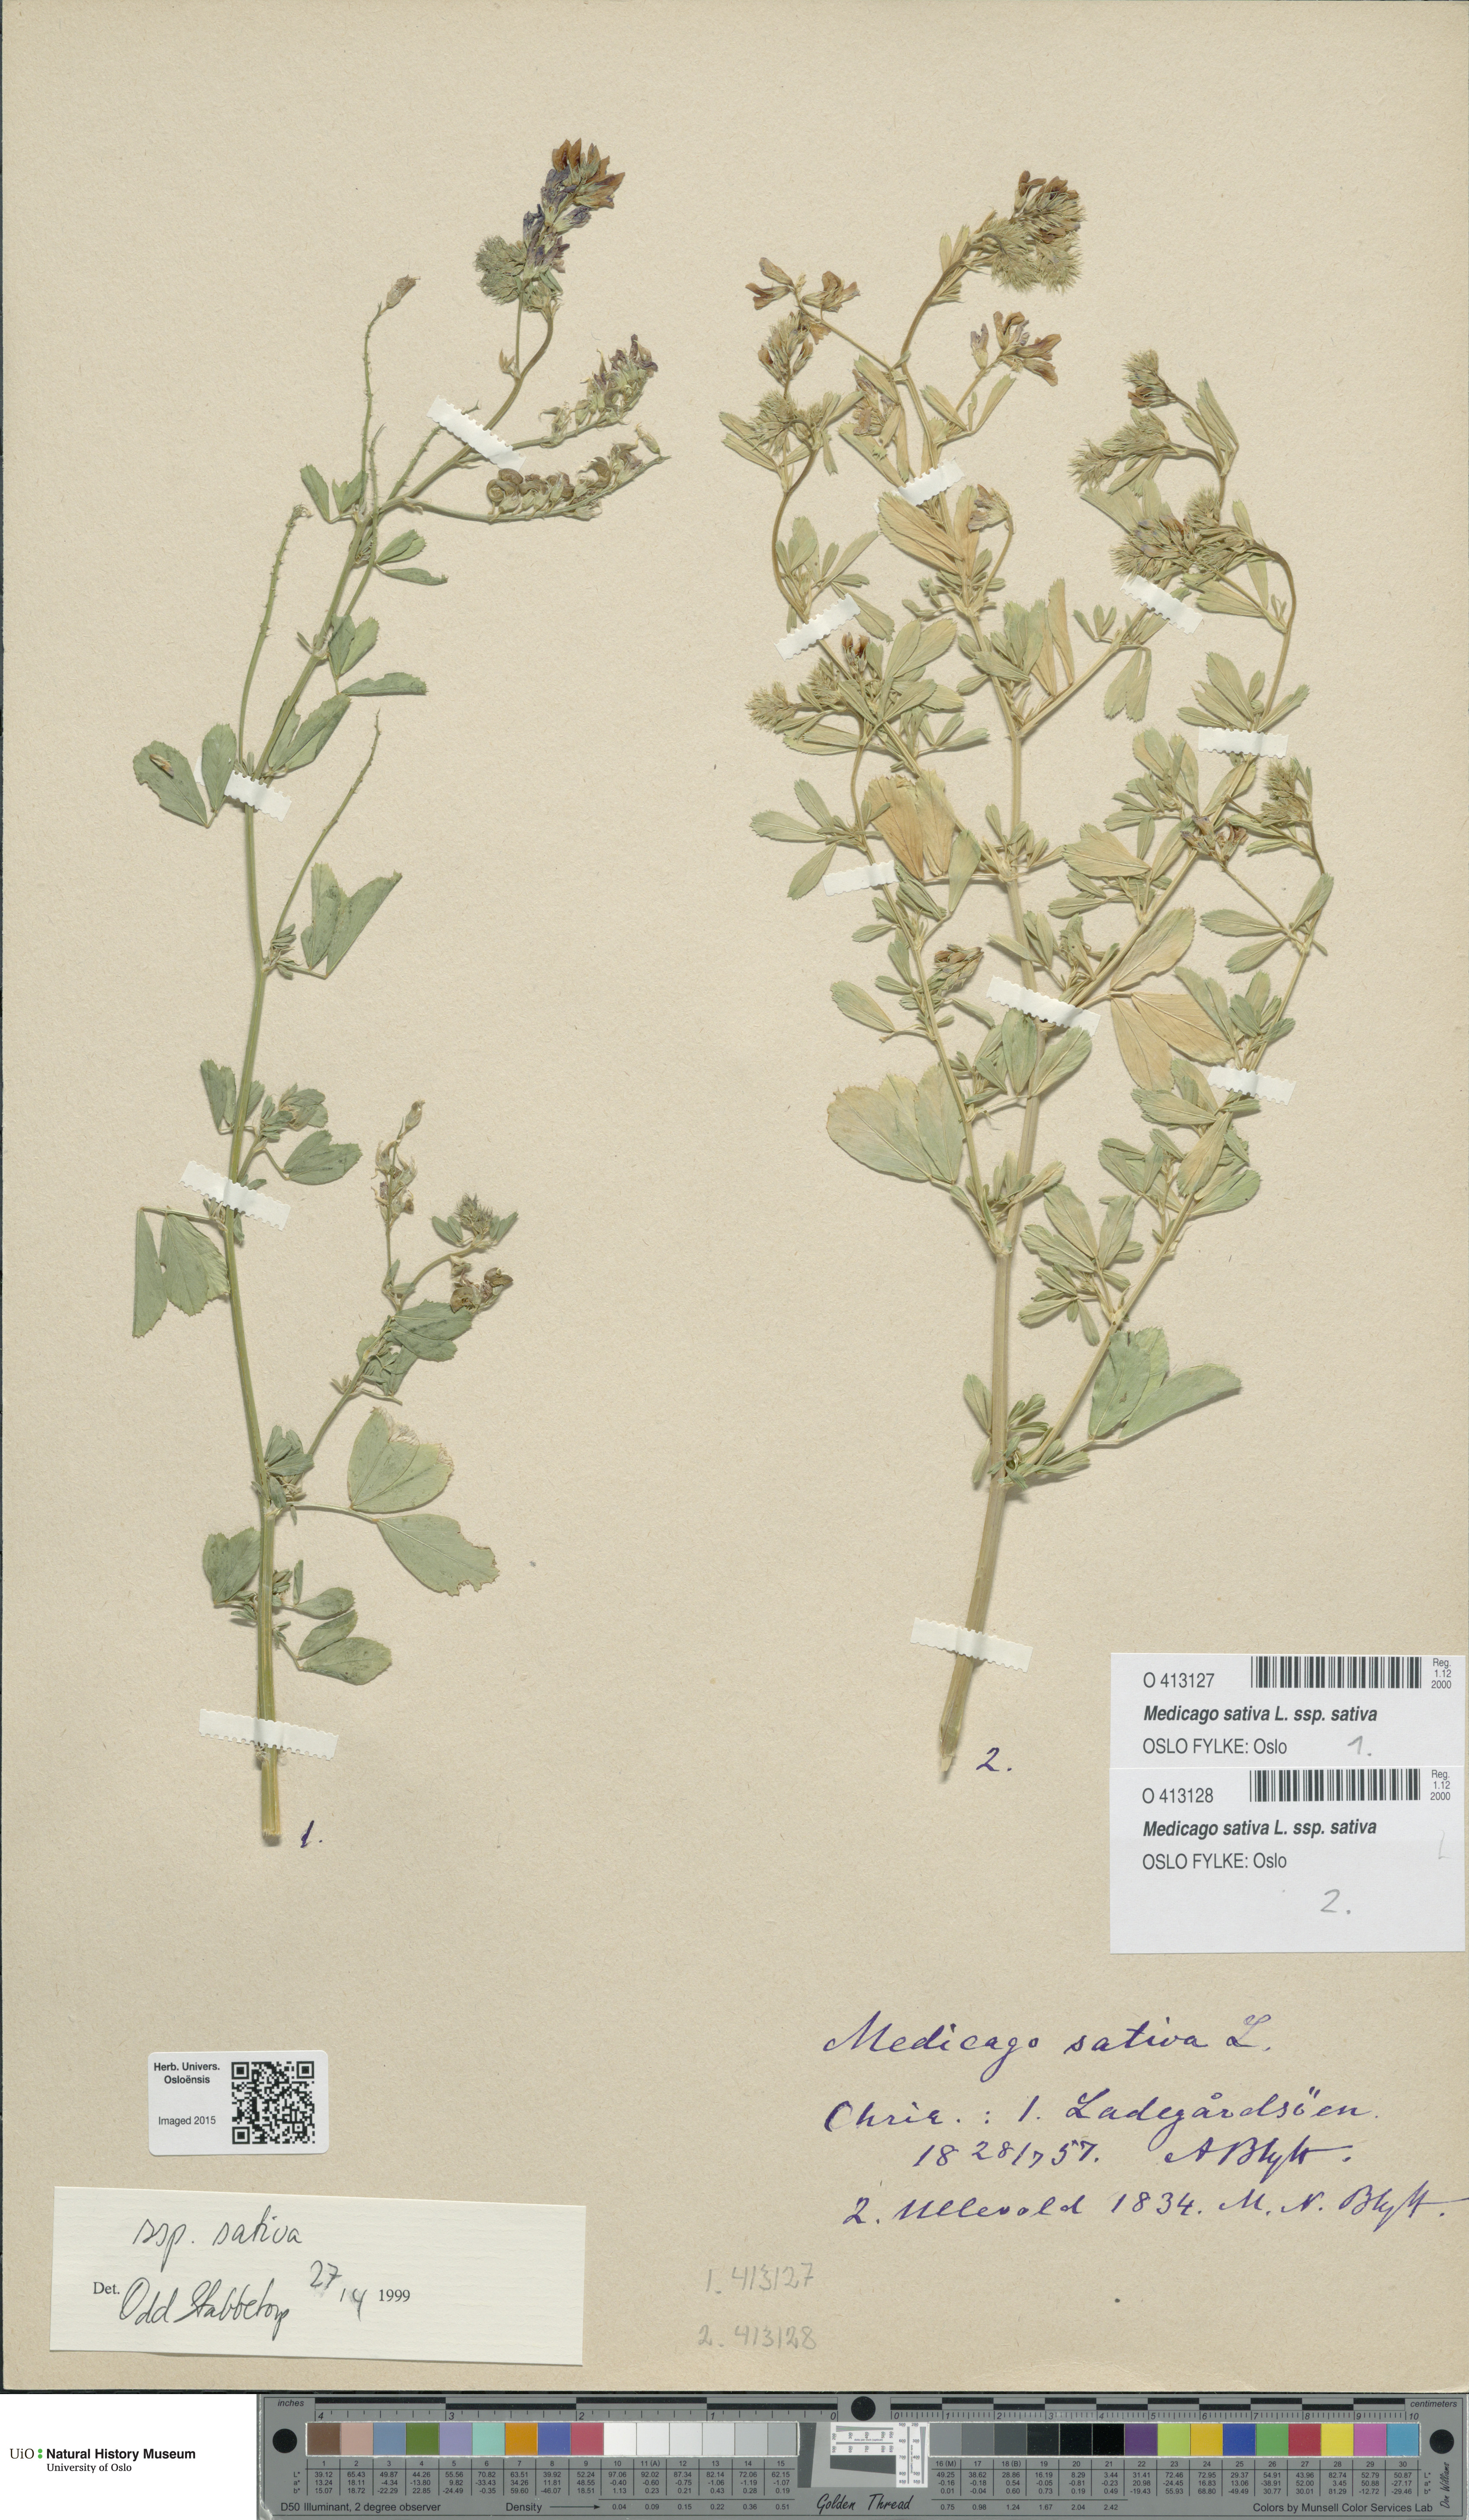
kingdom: Plantae
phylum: Tracheophyta
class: Magnoliopsida
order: Fabales
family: Fabaceae
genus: Medicago
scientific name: Medicago sativa
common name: Alfalfa
